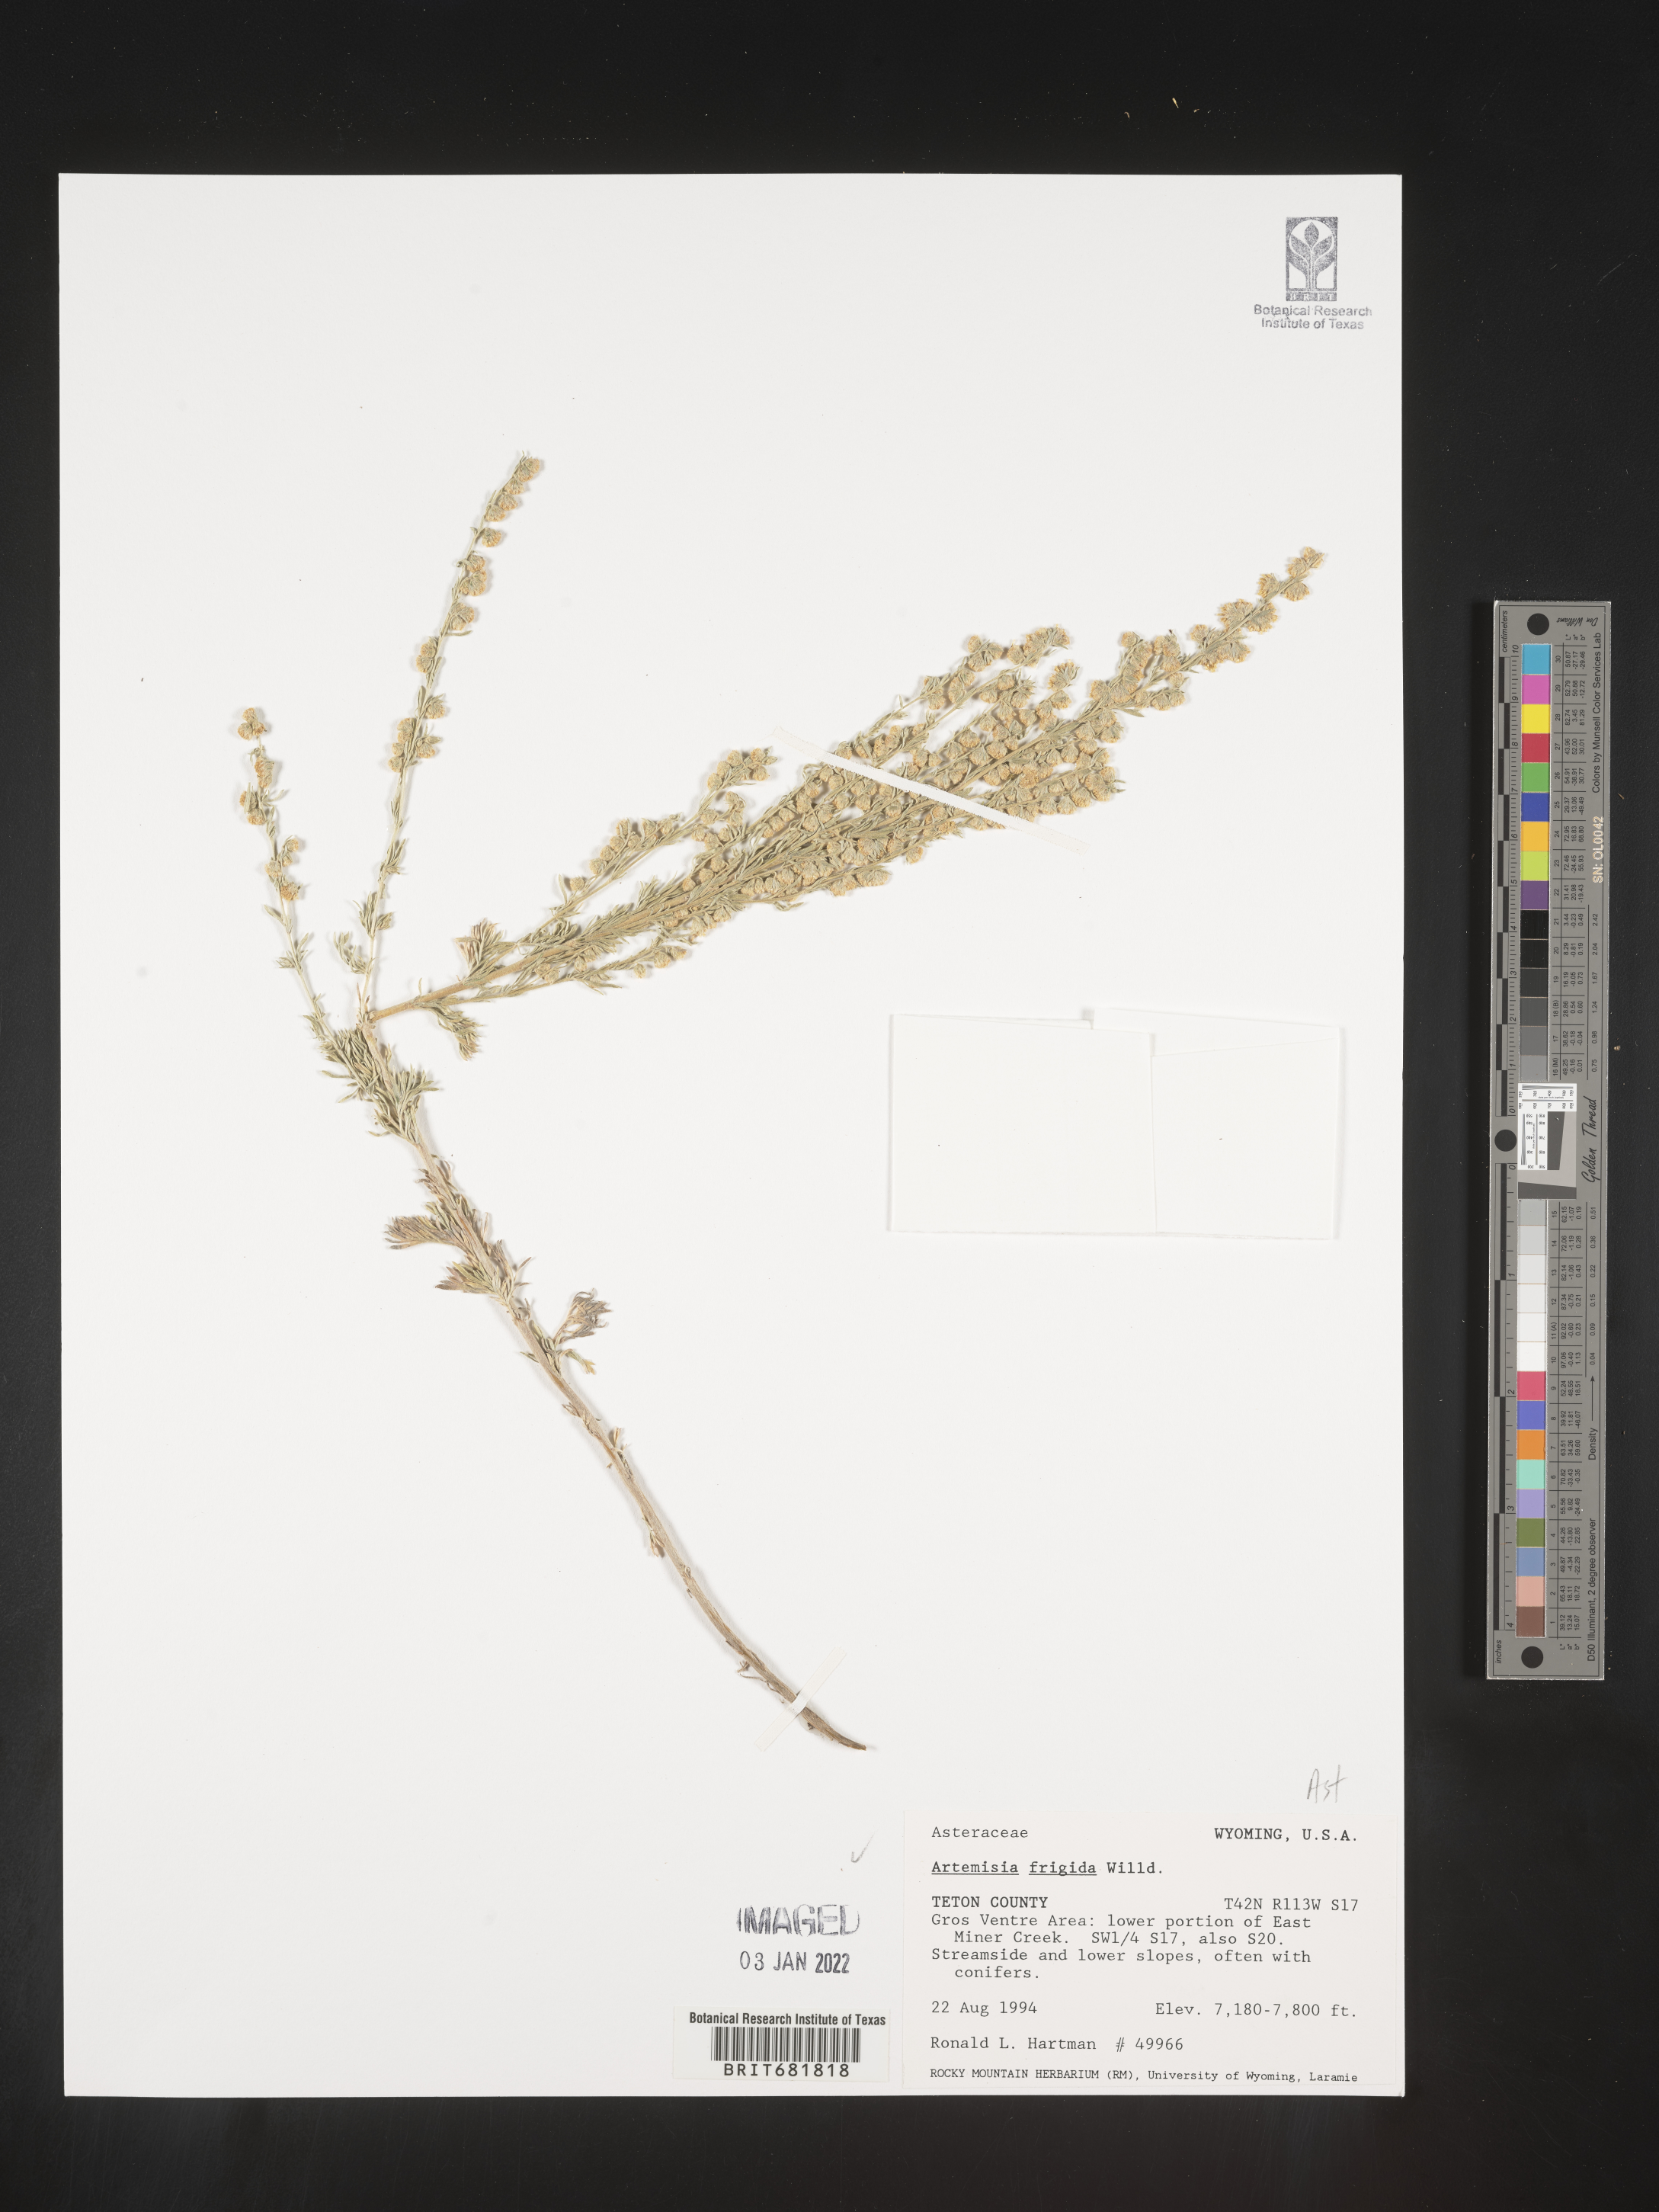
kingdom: Plantae
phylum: Tracheophyta
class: Magnoliopsida
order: Asterales
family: Asteraceae
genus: Artemisia
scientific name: Artemisia frigida
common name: Prairie sagewort
